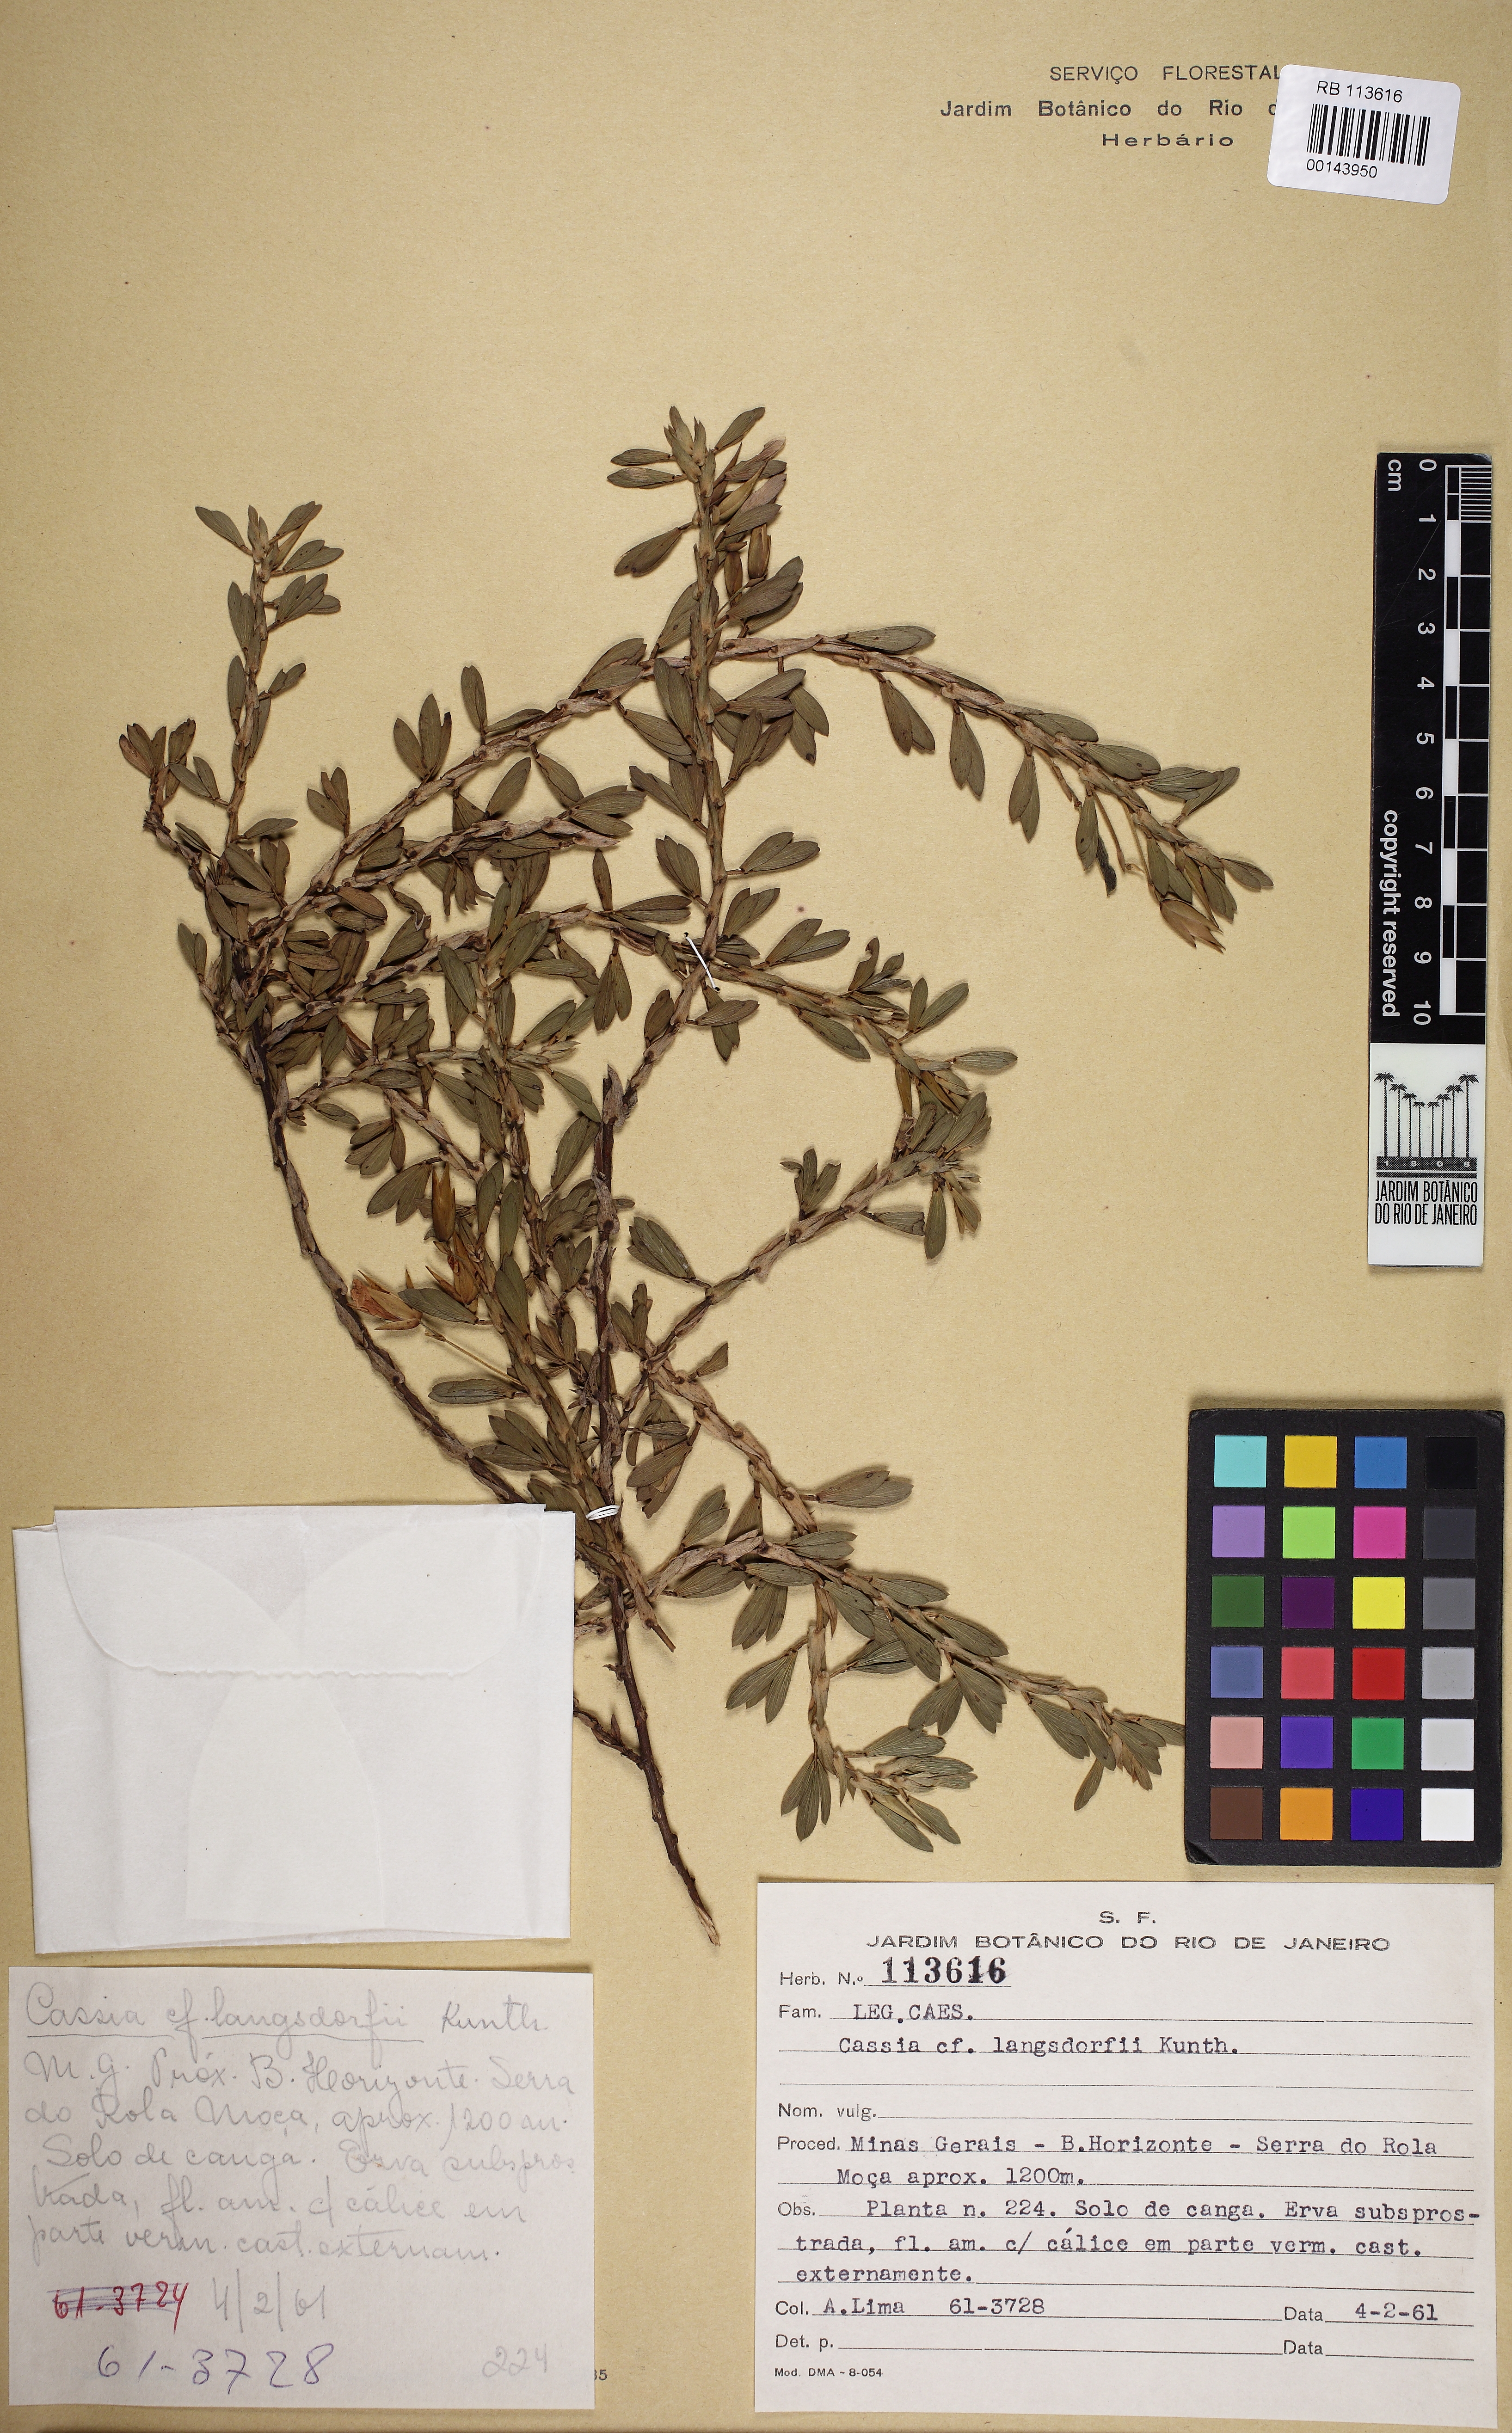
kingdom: Plantae
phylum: Tracheophyta
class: Magnoliopsida
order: Fabales
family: Fabaceae
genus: Chamaecrista
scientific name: Chamaecrista langsdorffii
